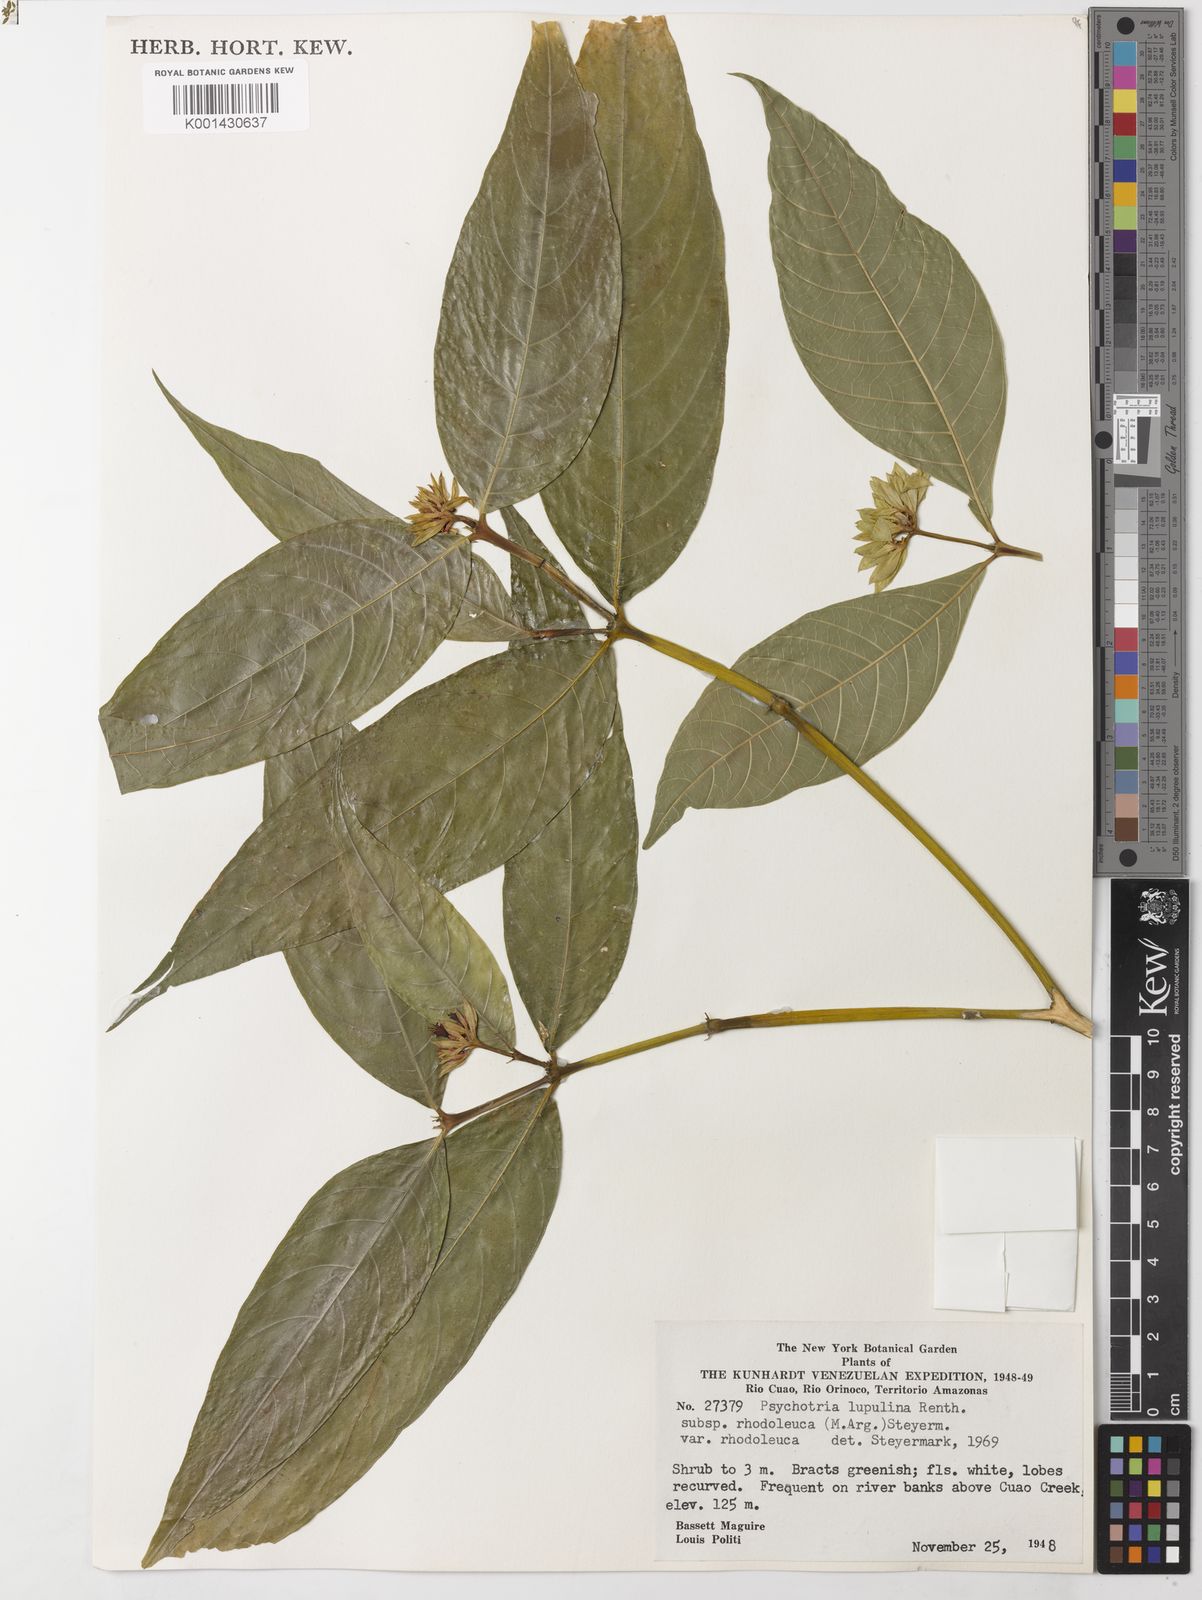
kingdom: Plantae
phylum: Tracheophyta
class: Magnoliopsida
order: Gentianales
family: Rubiaceae
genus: Palicourea
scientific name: Palicourea justiciifolia
